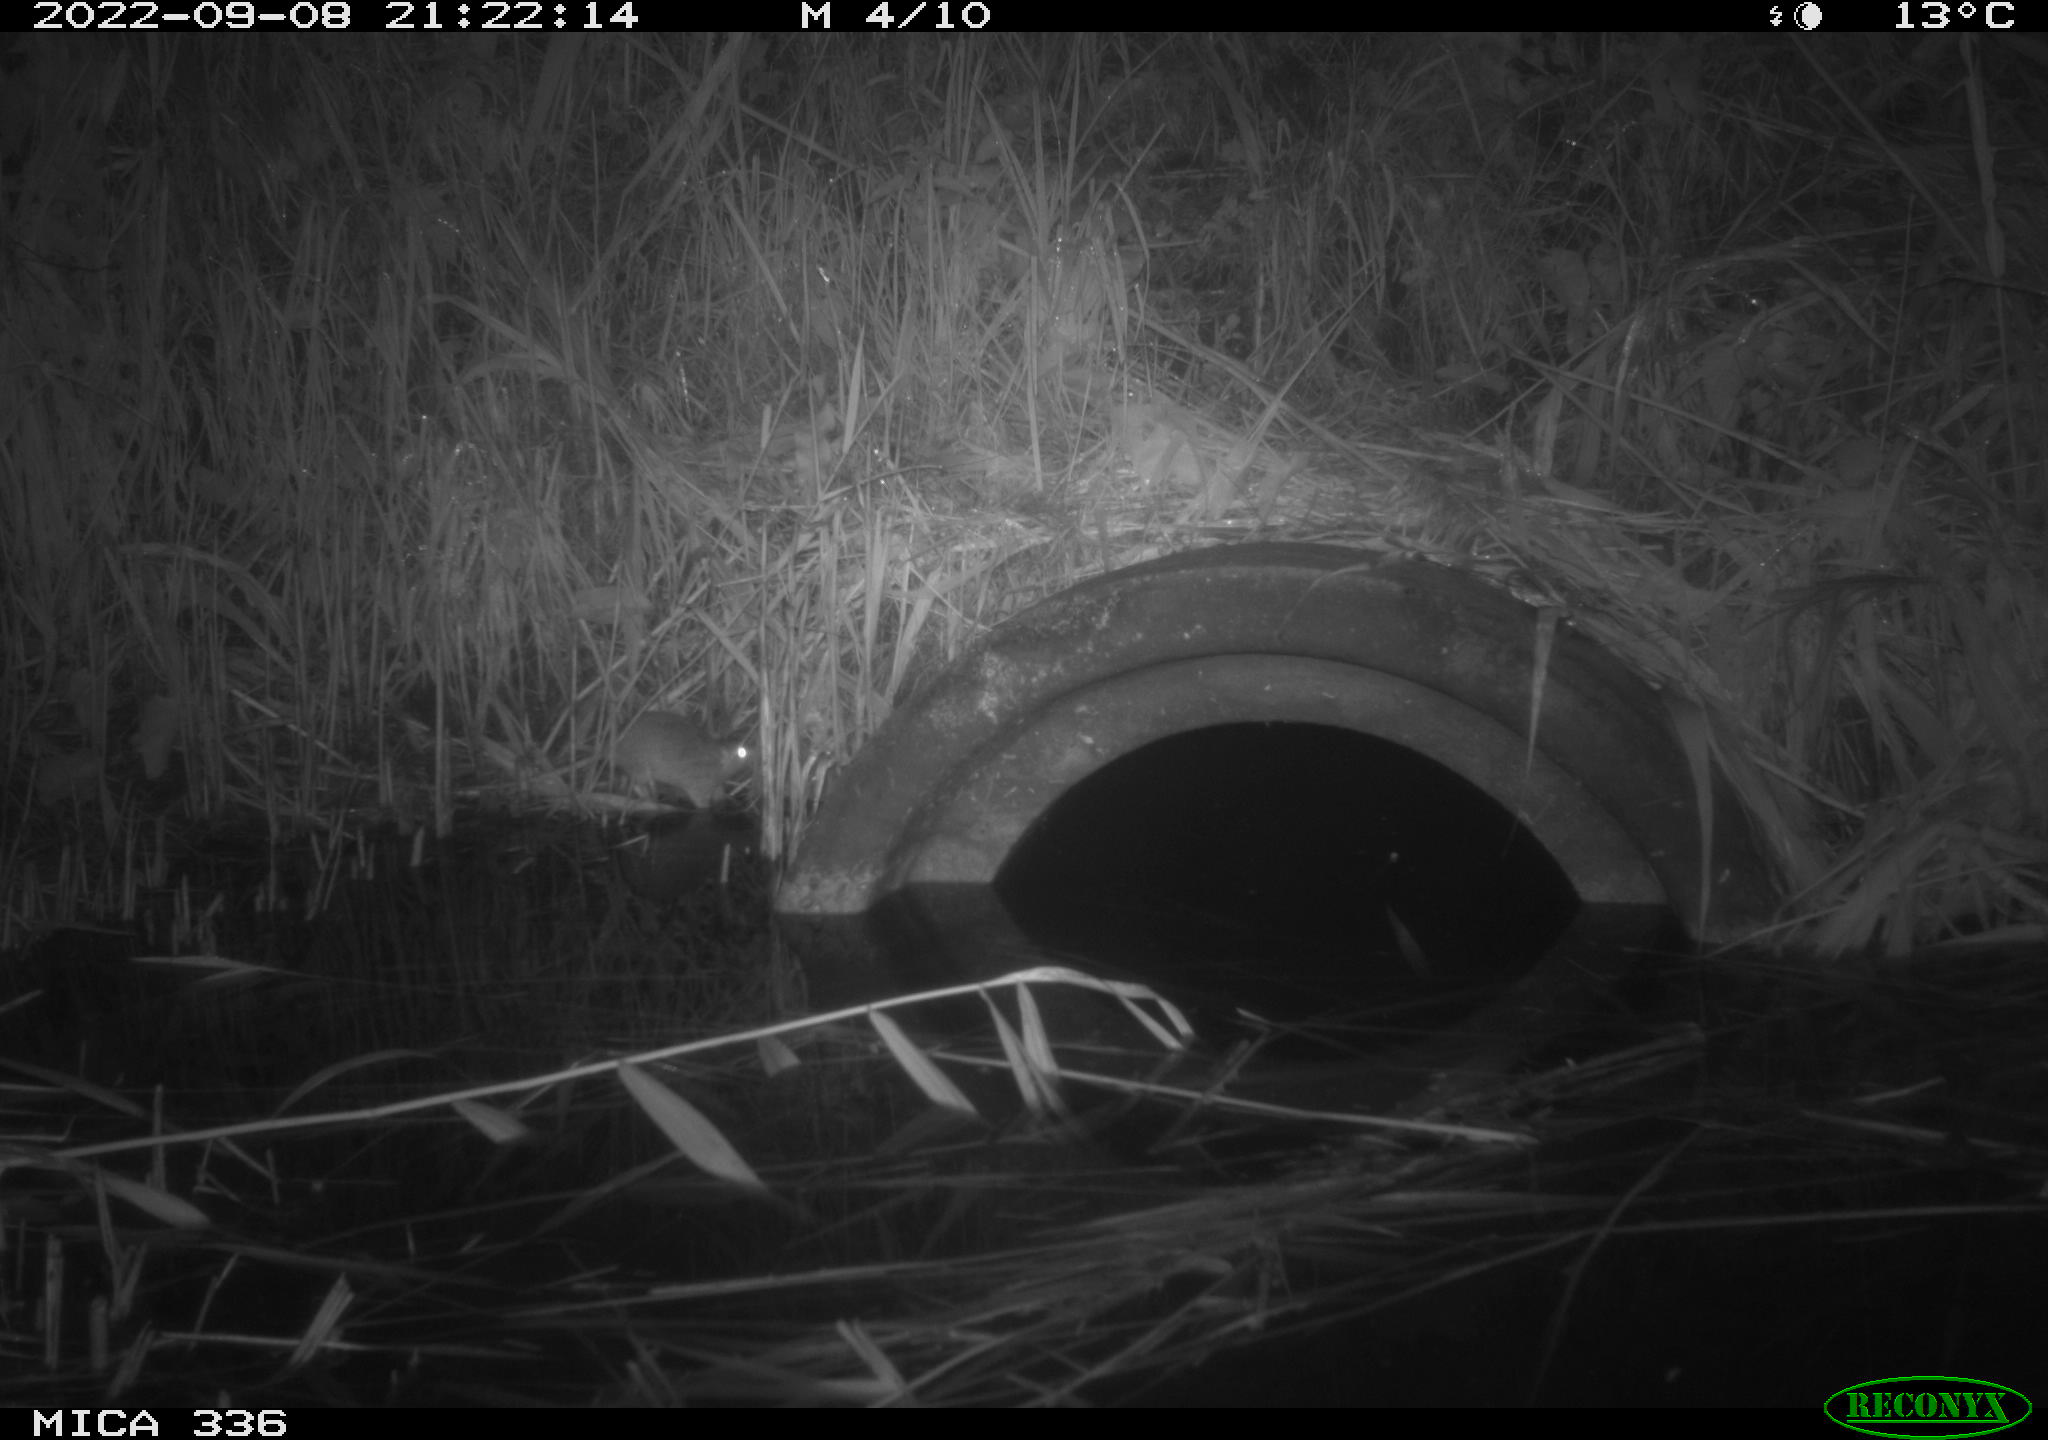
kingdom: Animalia
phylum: Chordata
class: Mammalia
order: Rodentia
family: Muridae
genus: Rattus
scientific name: Rattus norvegicus
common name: Brown rat
